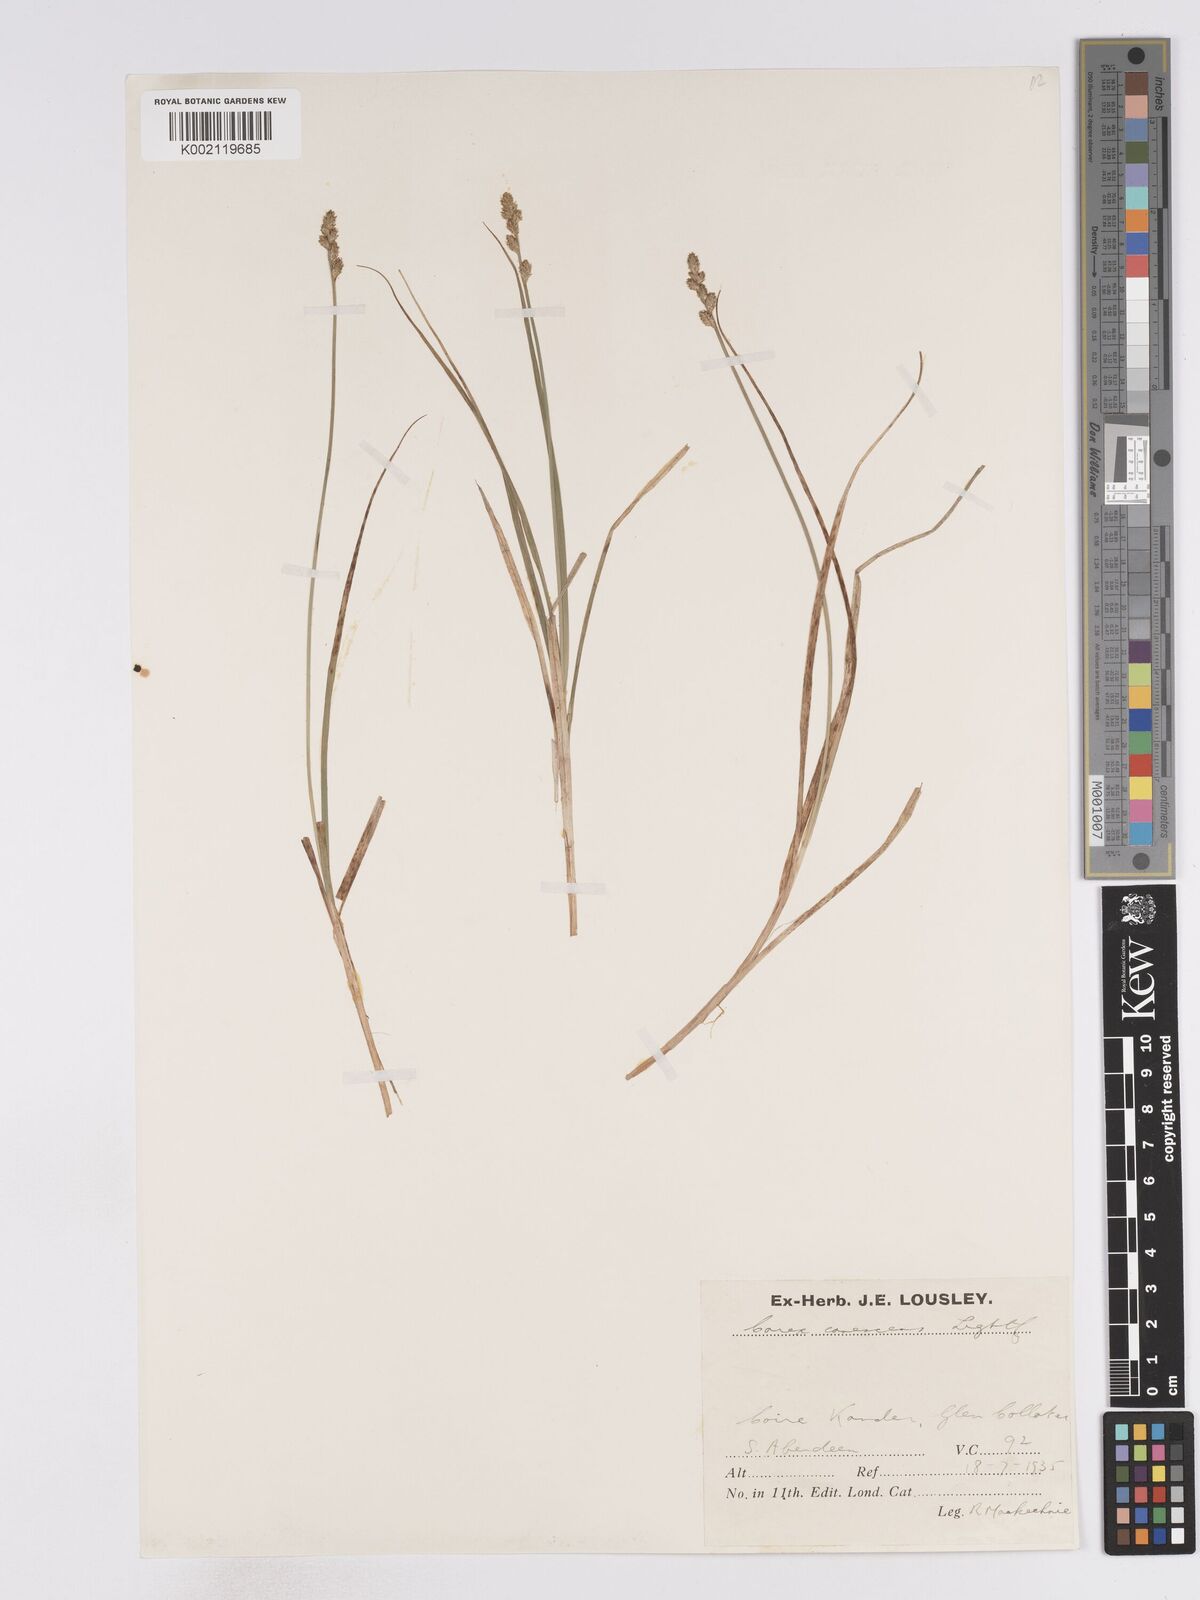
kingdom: Plantae
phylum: Tracheophyta
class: Liliopsida
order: Poales
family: Cyperaceae
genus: Carex
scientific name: Carex curta
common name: White sedge
